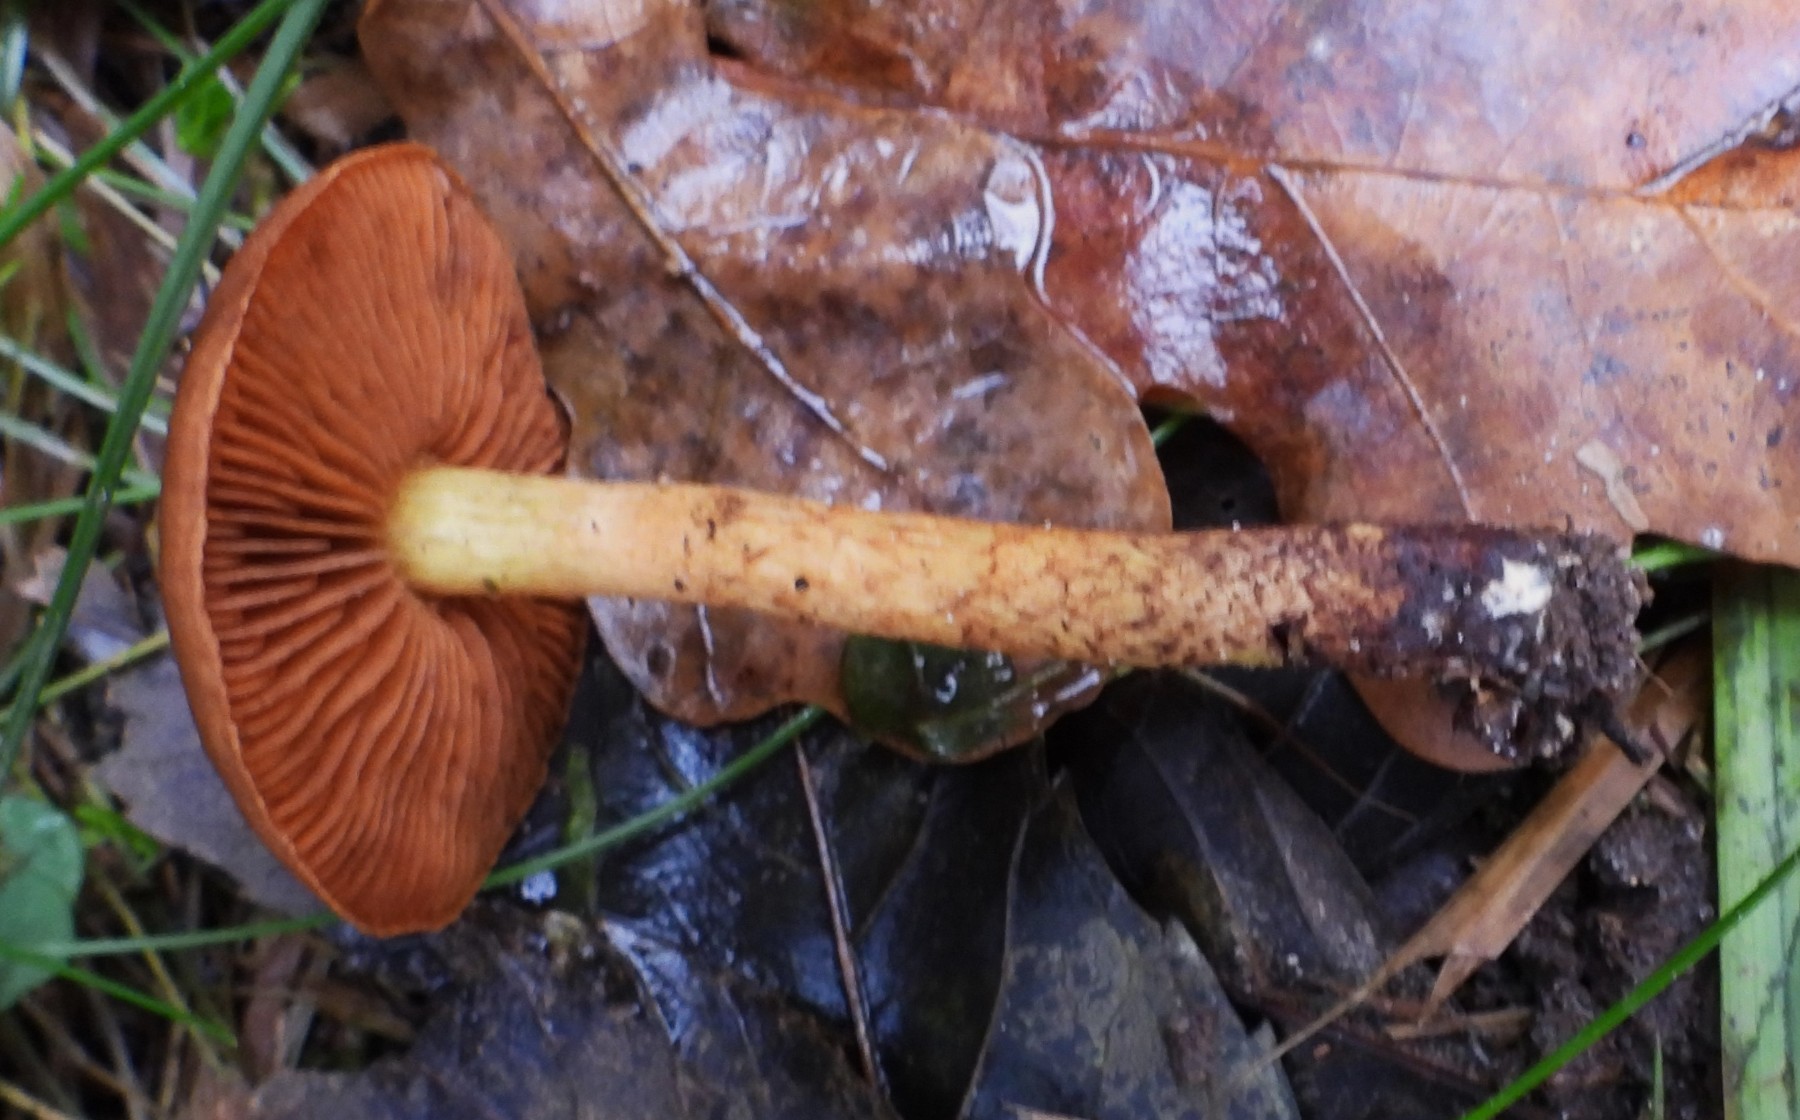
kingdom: Fungi
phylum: Basidiomycota
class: Agaricomycetes
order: Agaricales
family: Cortinariaceae
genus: Cortinarius
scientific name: Cortinarius malicorius
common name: grønkødet slørhat
